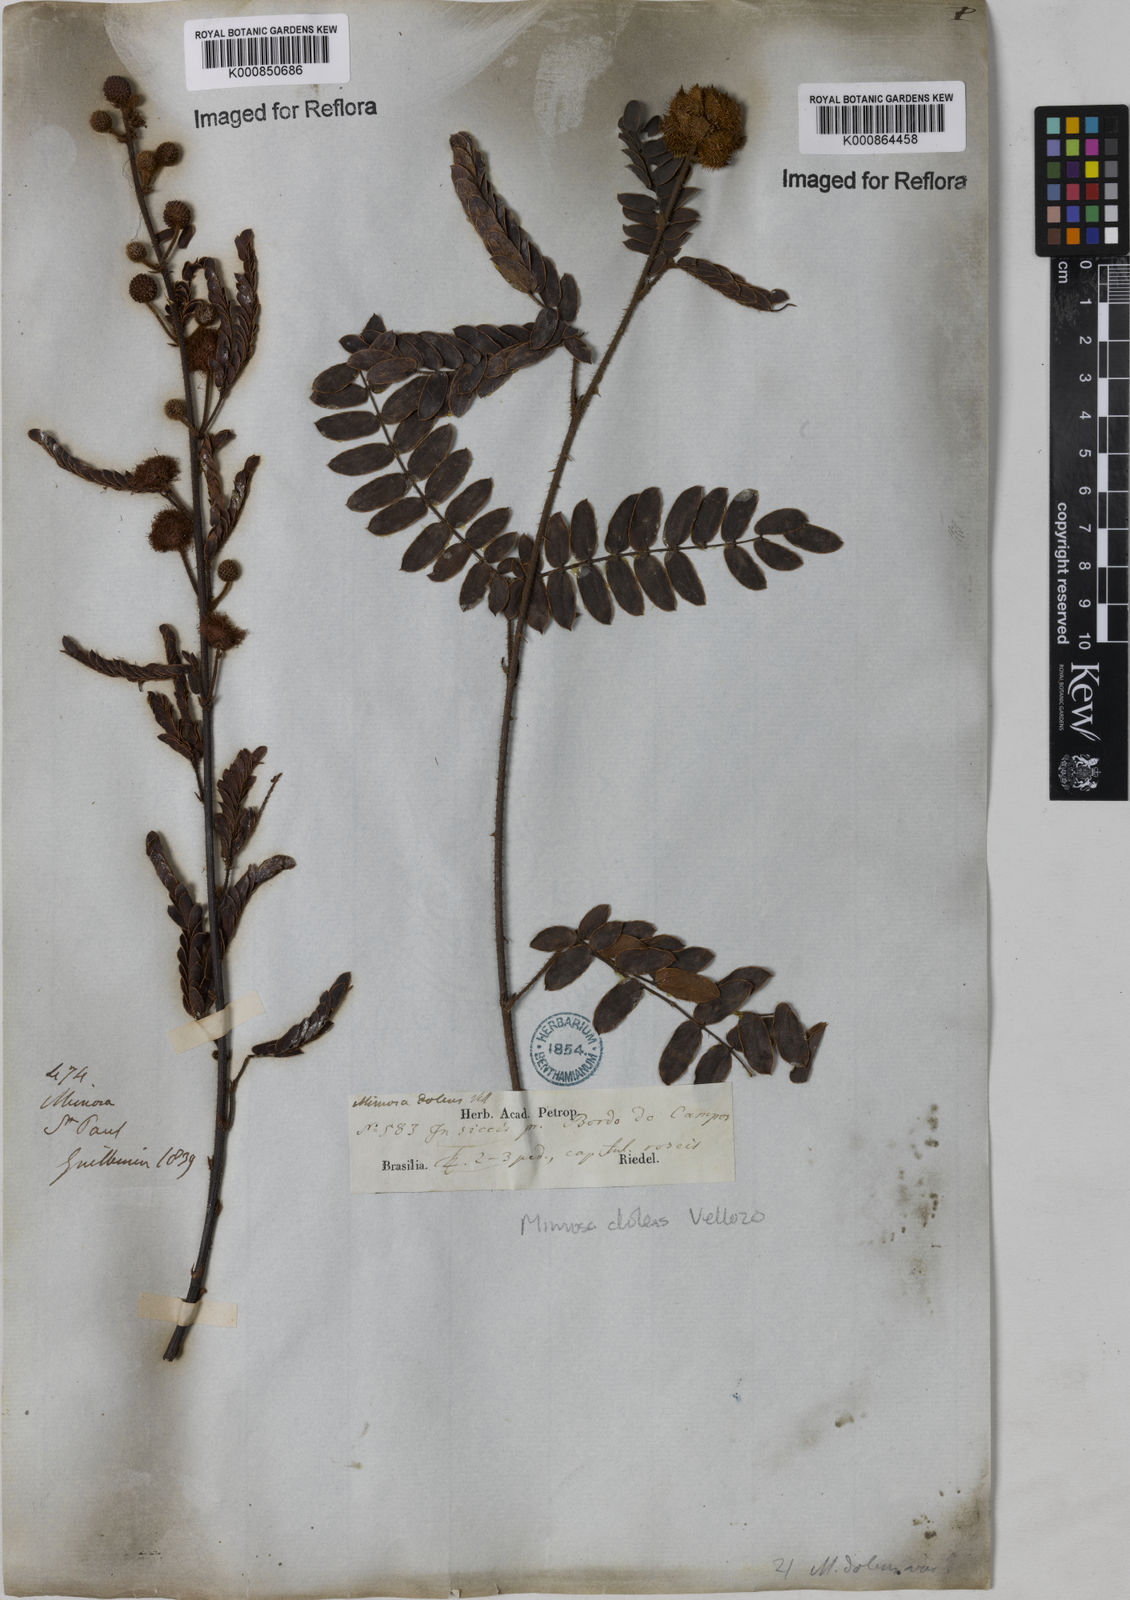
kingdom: Plantae
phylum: Tracheophyta
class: Magnoliopsida
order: Fabales
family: Fabaceae
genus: Mimosa
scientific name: Mimosa dolens
